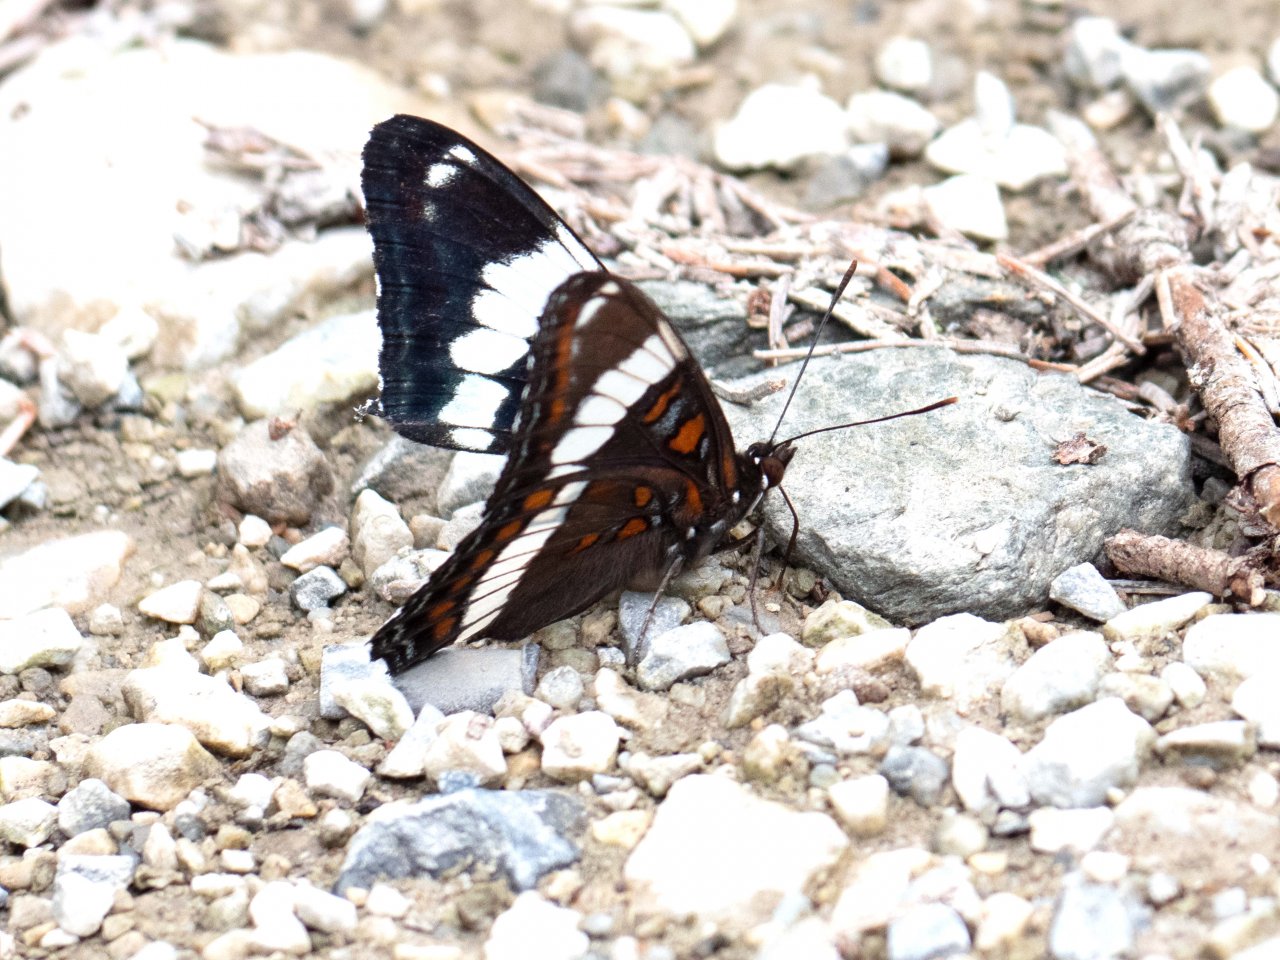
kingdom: Animalia
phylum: Arthropoda
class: Insecta
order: Lepidoptera
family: Nymphalidae
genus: Limenitis
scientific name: Limenitis arthemis
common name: Red-spotted Admiral
